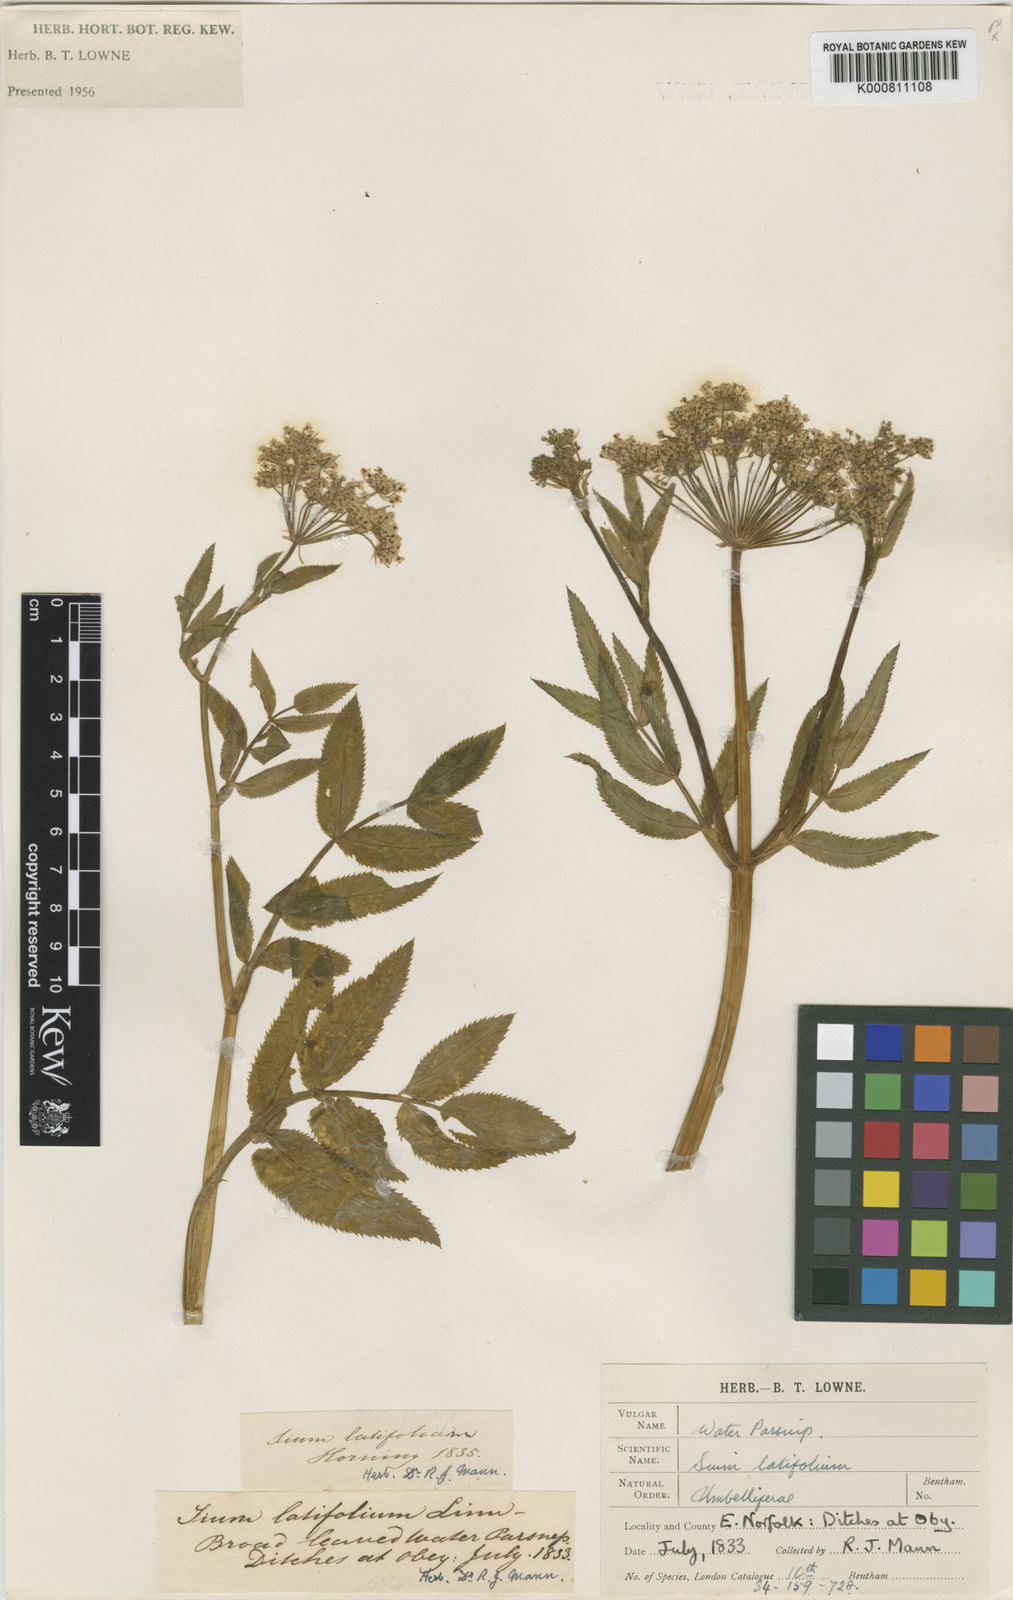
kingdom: Plantae
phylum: Tracheophyta
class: Magnoliopsida
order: Apiales
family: Apiaceae
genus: Sium
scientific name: Sium latifolium
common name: Greater water-parsnip
